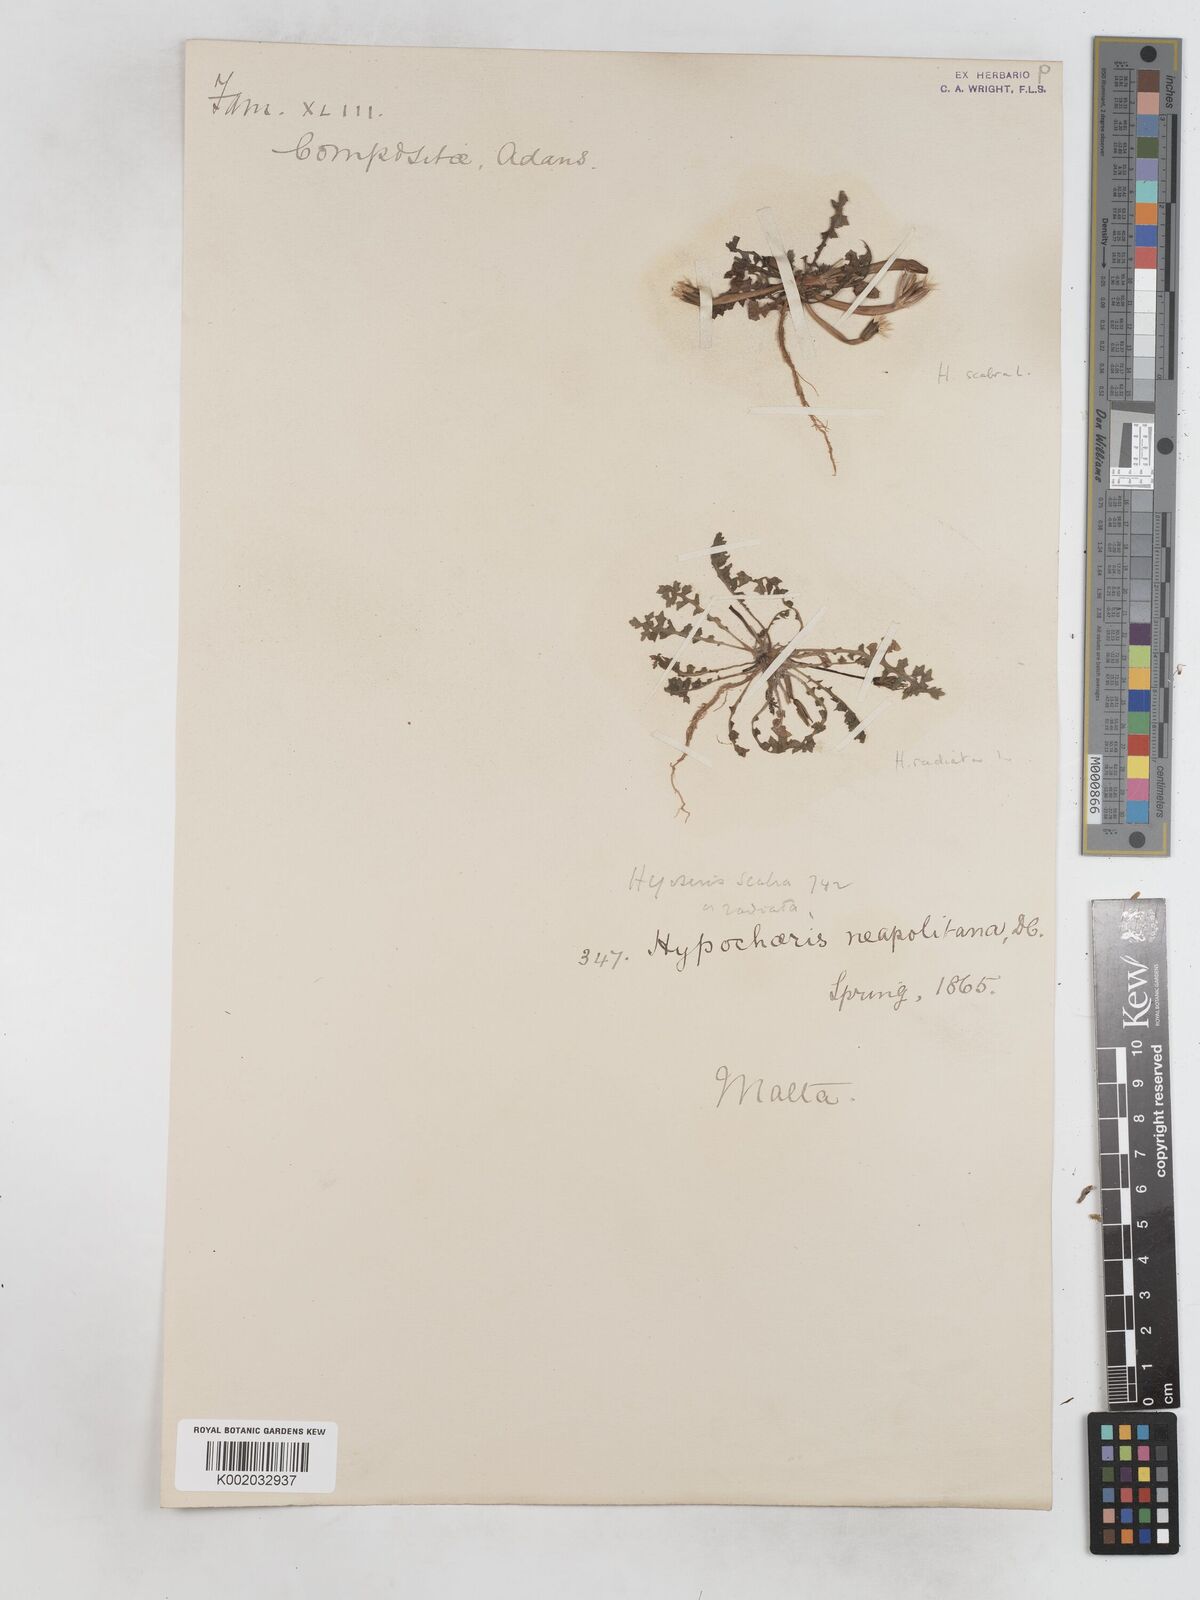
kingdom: Plantae
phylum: Tracheophyta
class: Magnoliopsida
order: Asterales
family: Asteraceae
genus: Hyoseris
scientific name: Hyoseris scabra
